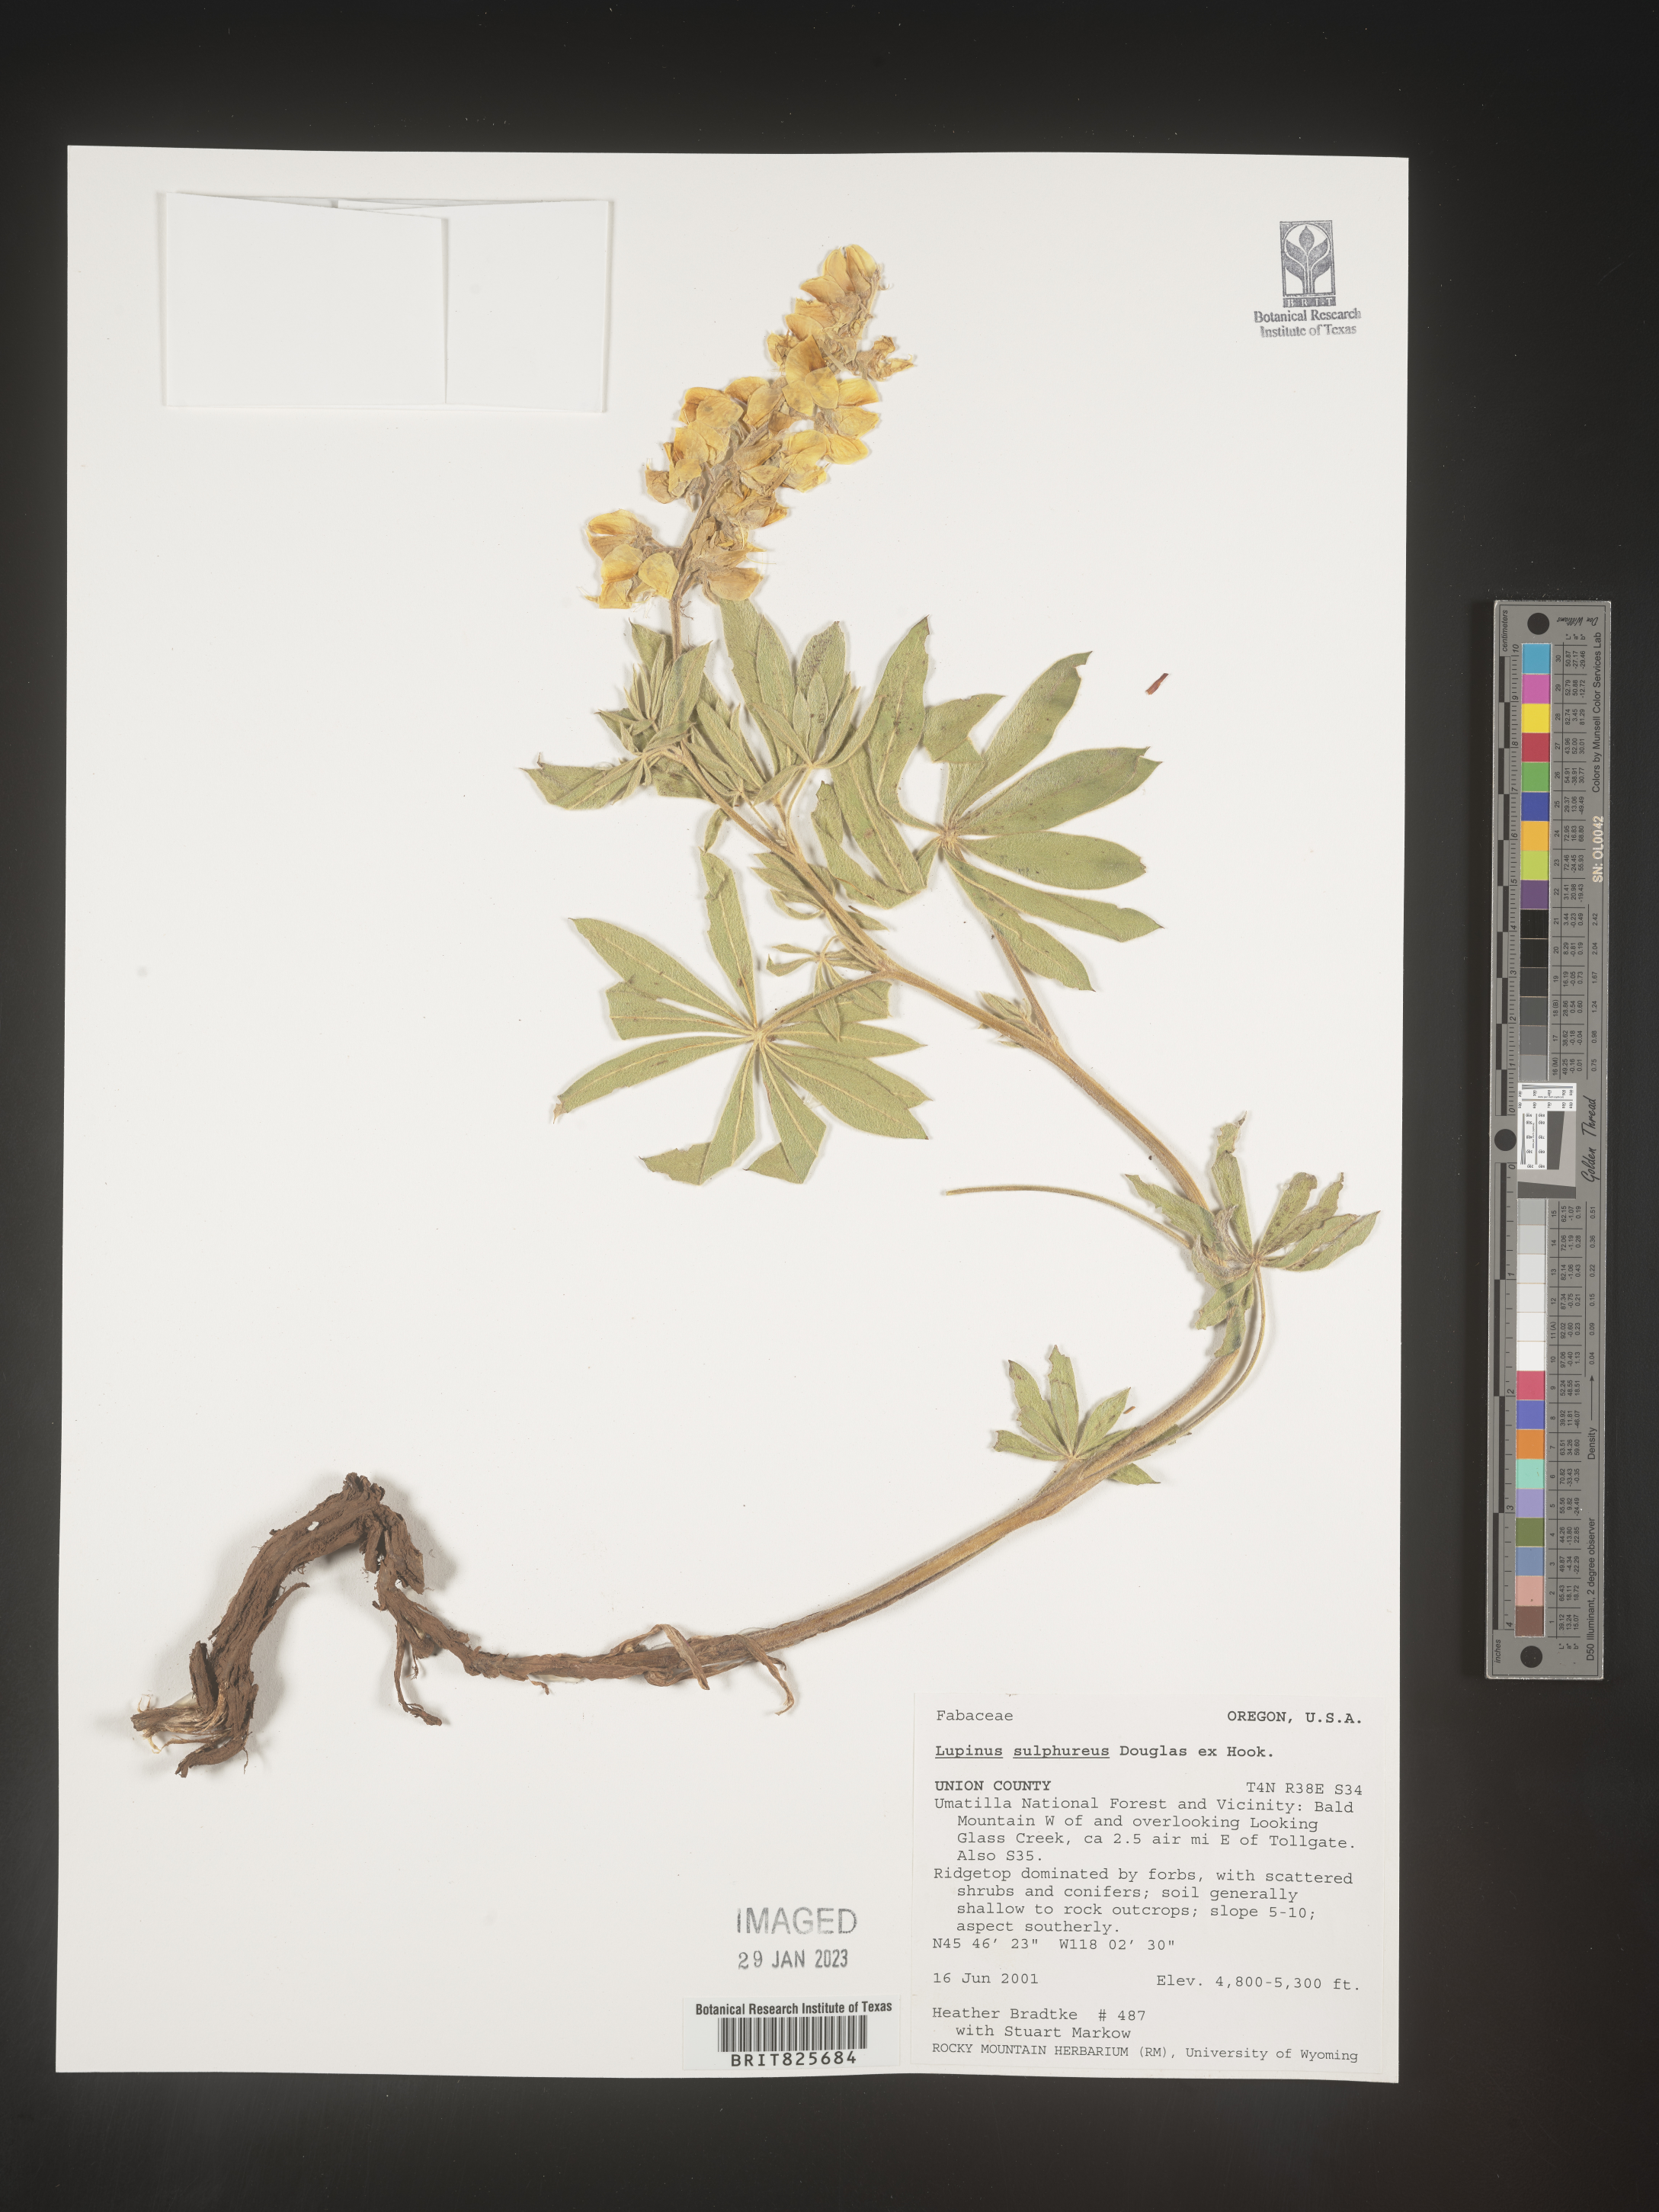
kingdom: Plantae
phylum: Tracheophyta
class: Magnoliopsida
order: Fabales
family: Fabaceae
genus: Lupinus
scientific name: Lupinus
